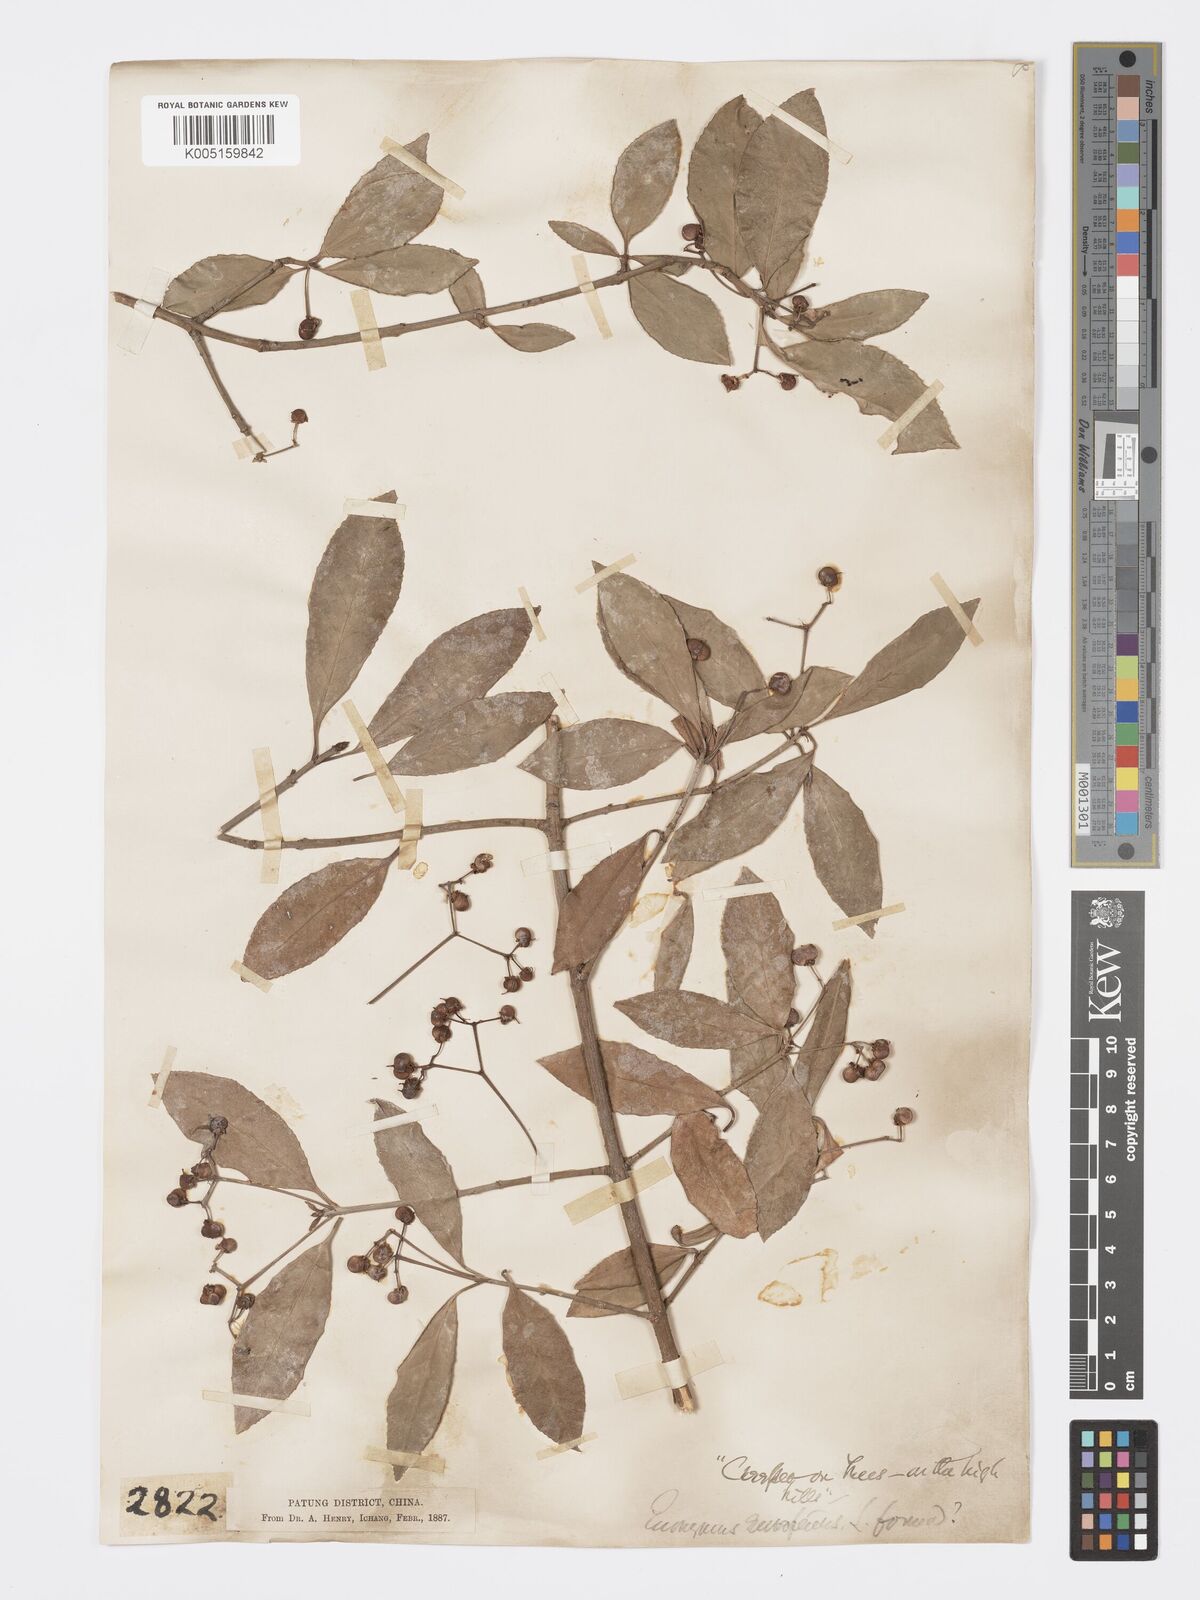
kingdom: Plantae
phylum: Tracheophyta
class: Magnoliopsida
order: Celastrales
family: Celastraceae
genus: Euonymus
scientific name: Euonymus
